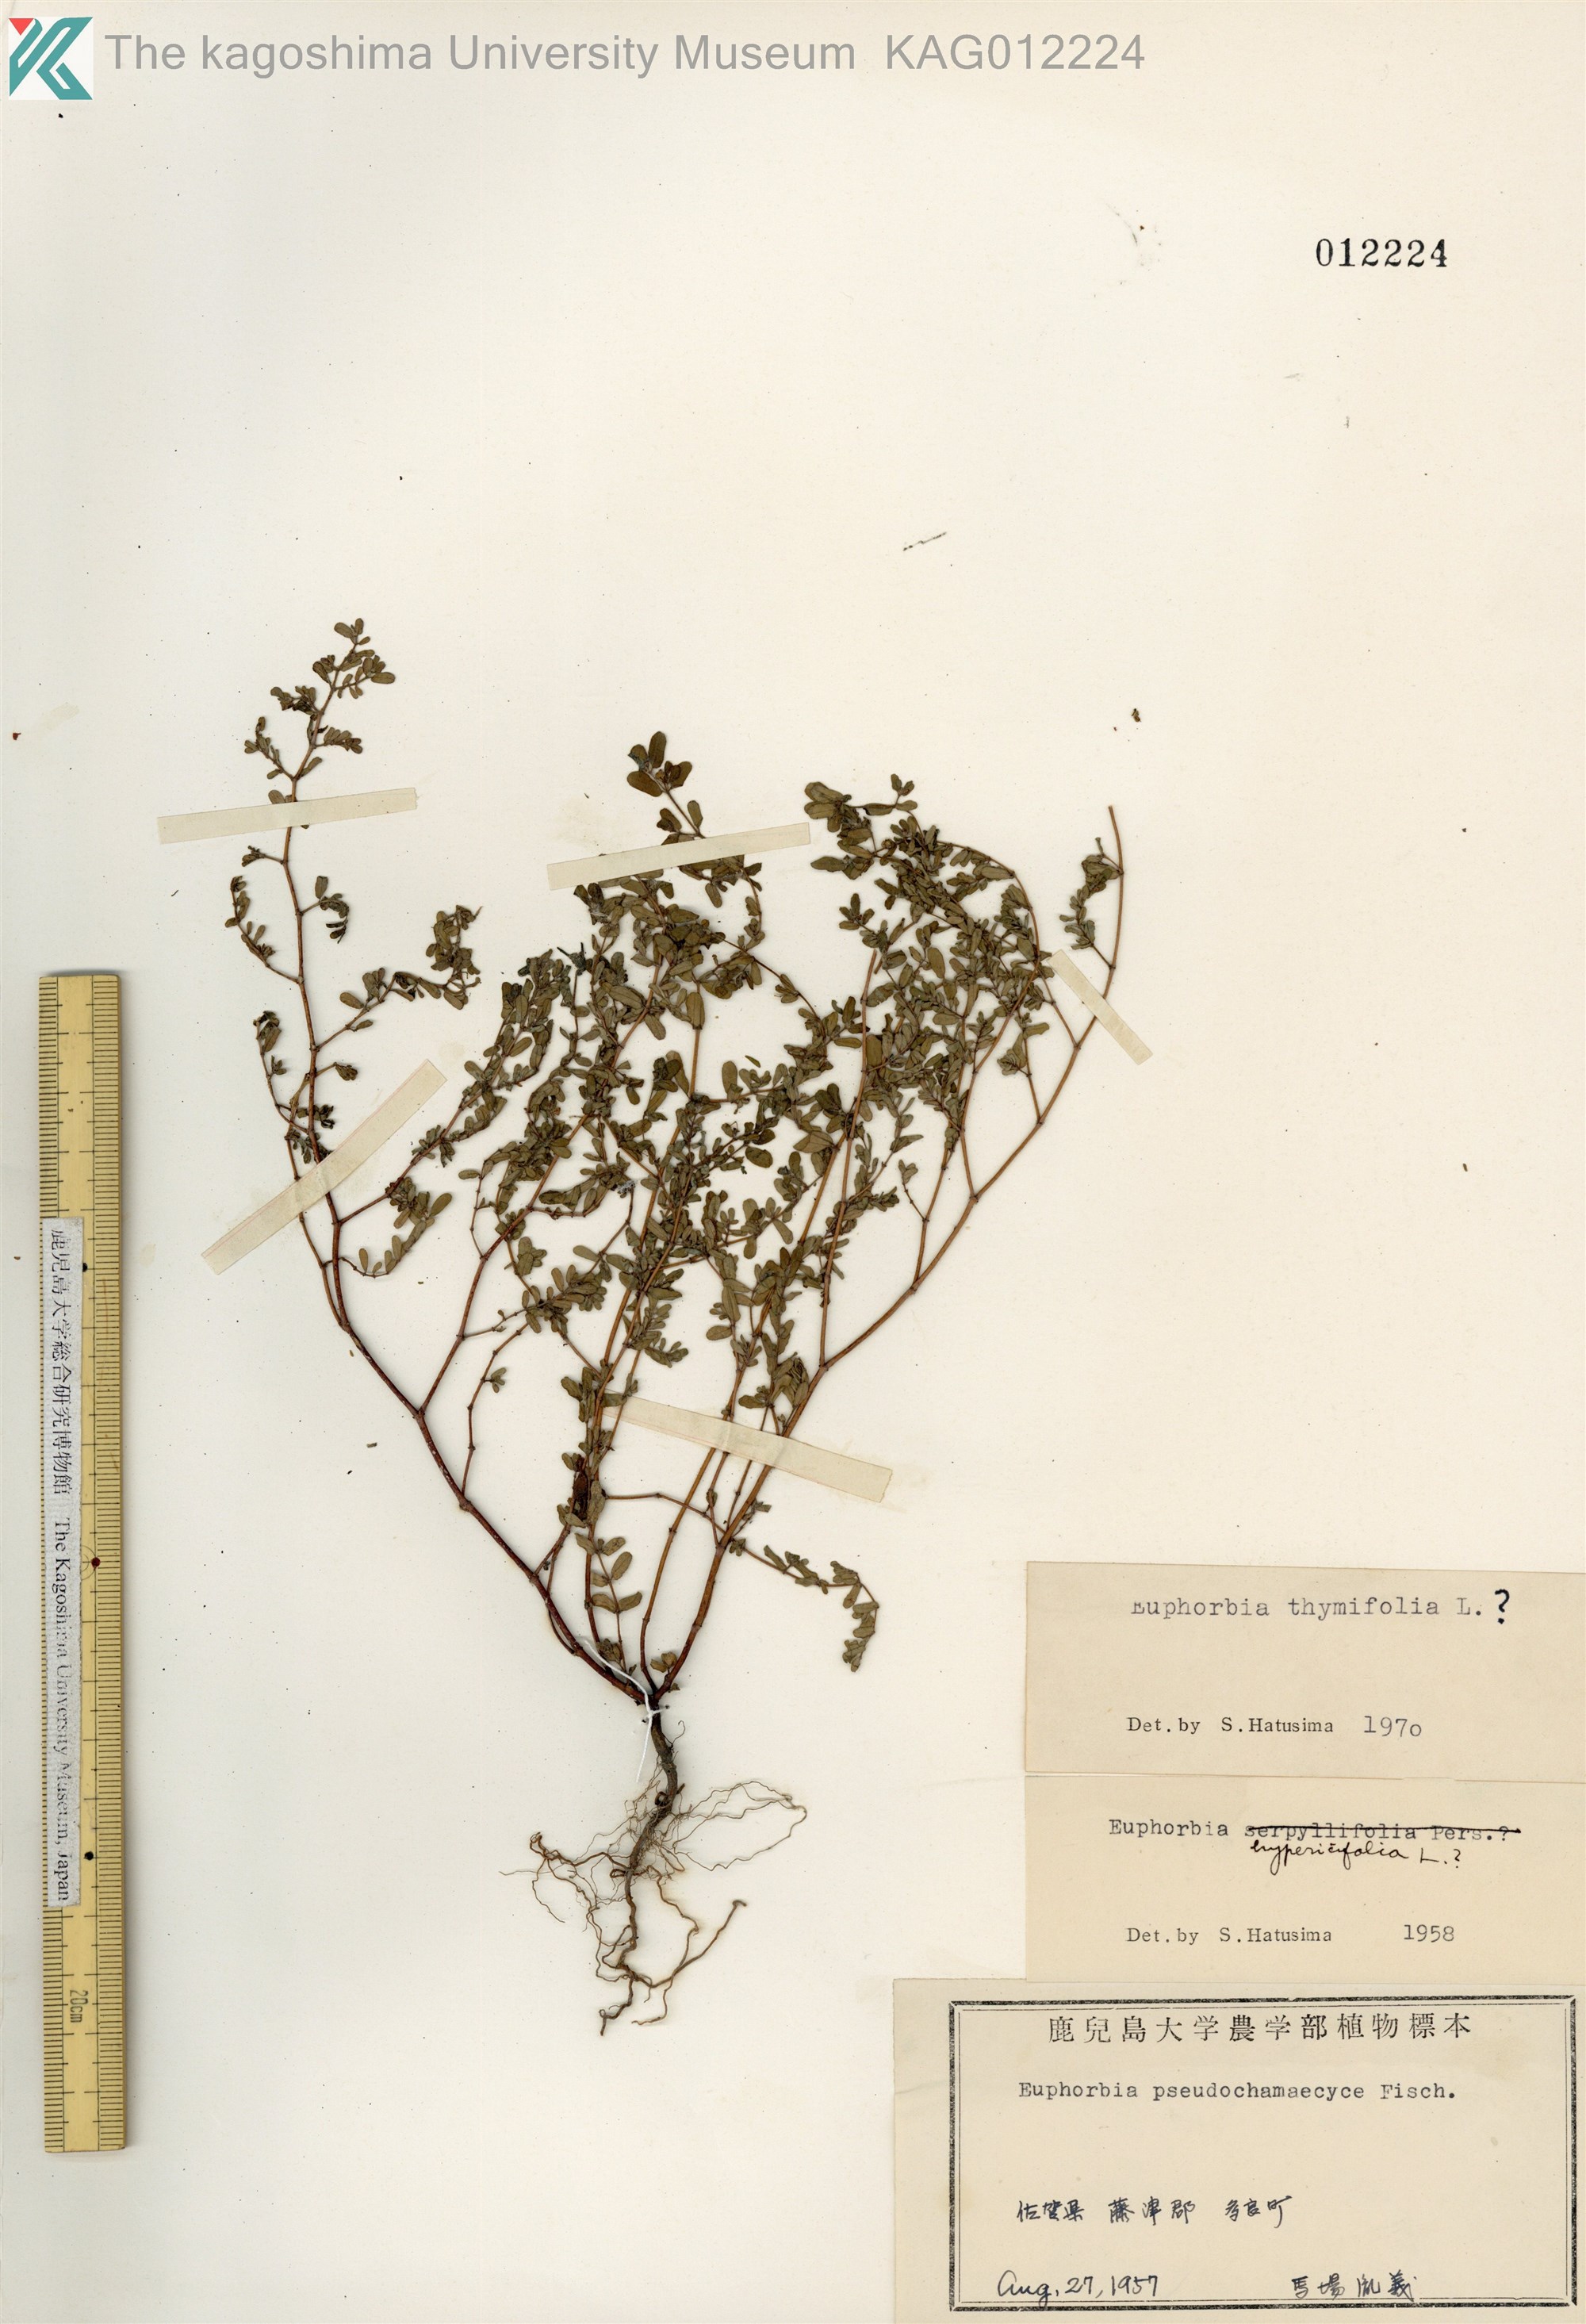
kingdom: Plantae
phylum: Tracheophyta
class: Magnoliopsida
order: Malpighiales
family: Euphorbiaceae
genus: Euphorbia
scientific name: Euphorbia thymifolia
